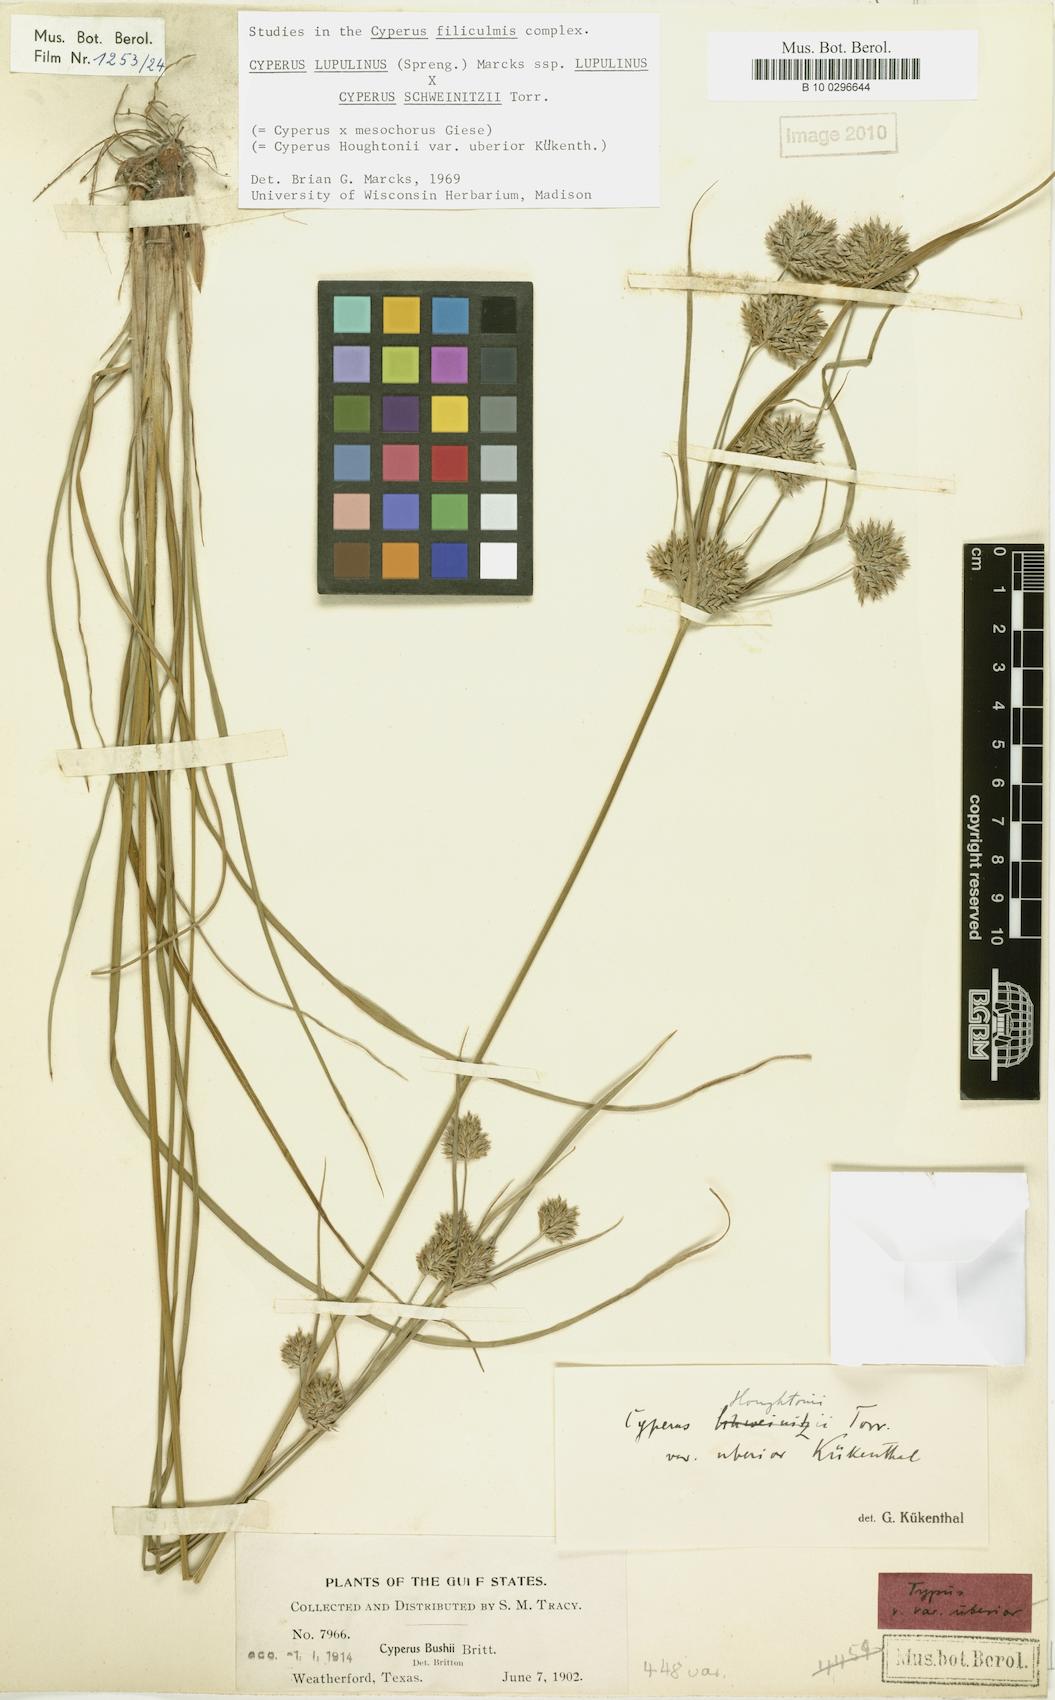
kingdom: Plantae
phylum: Tracheophyta
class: Liliopsida
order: Poales
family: Cyperaceae
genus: Cyperus
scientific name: Cyperus houghtonii
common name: Houghton's cyperus
